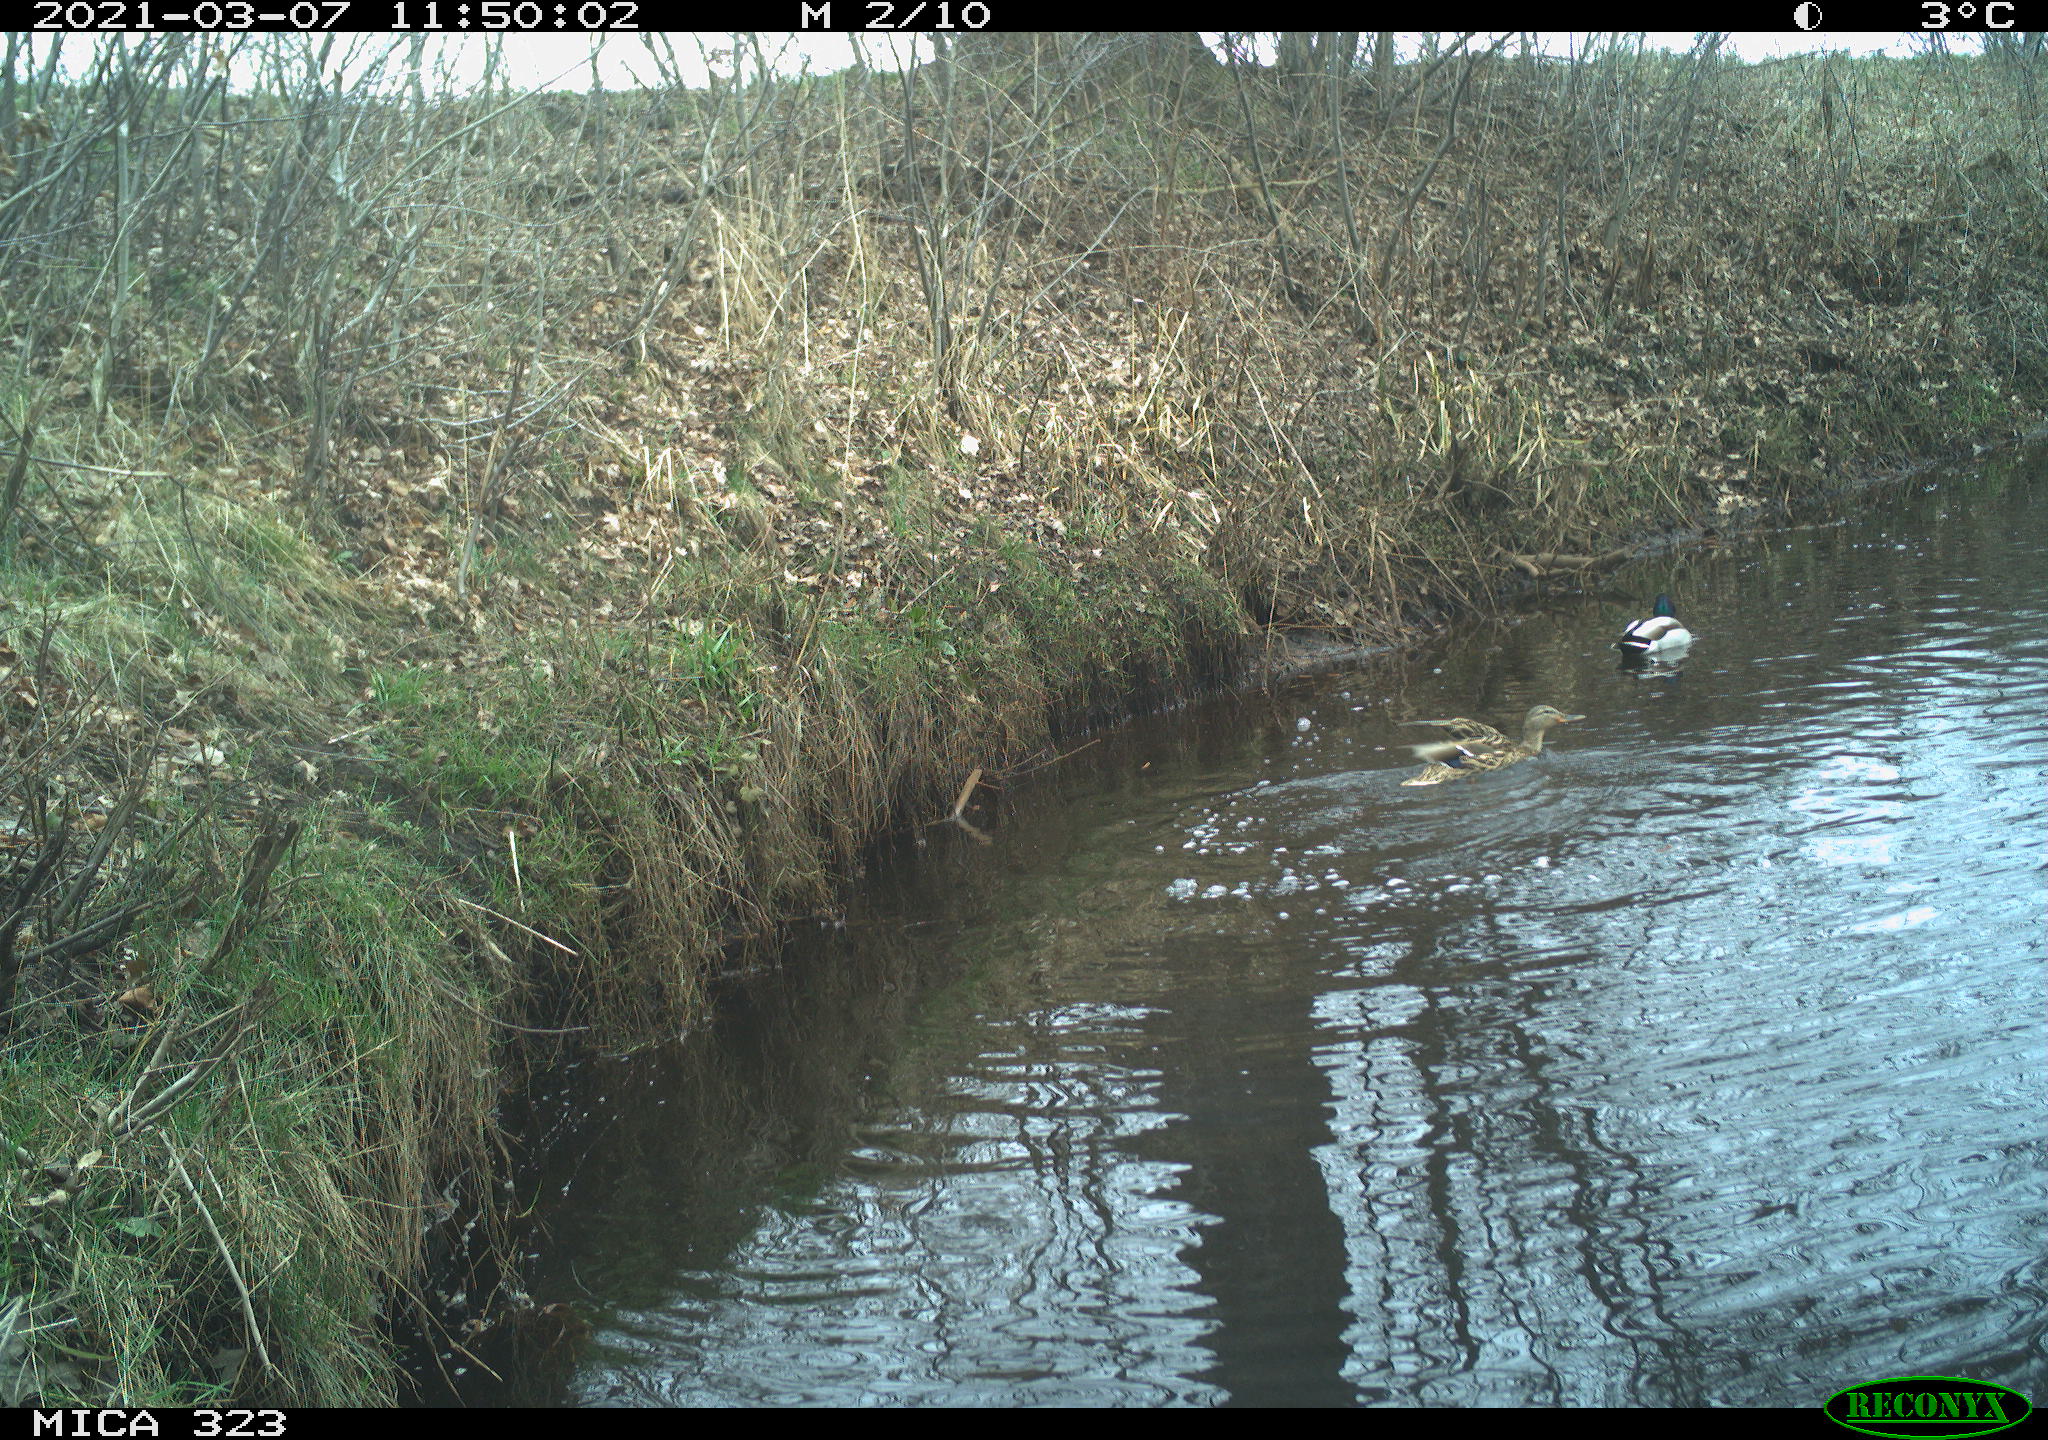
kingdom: Animalia
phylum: Chordata
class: Aves
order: Anseriformes
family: Anatidae
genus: Anas
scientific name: Anas platyrhynchos
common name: Mallard
